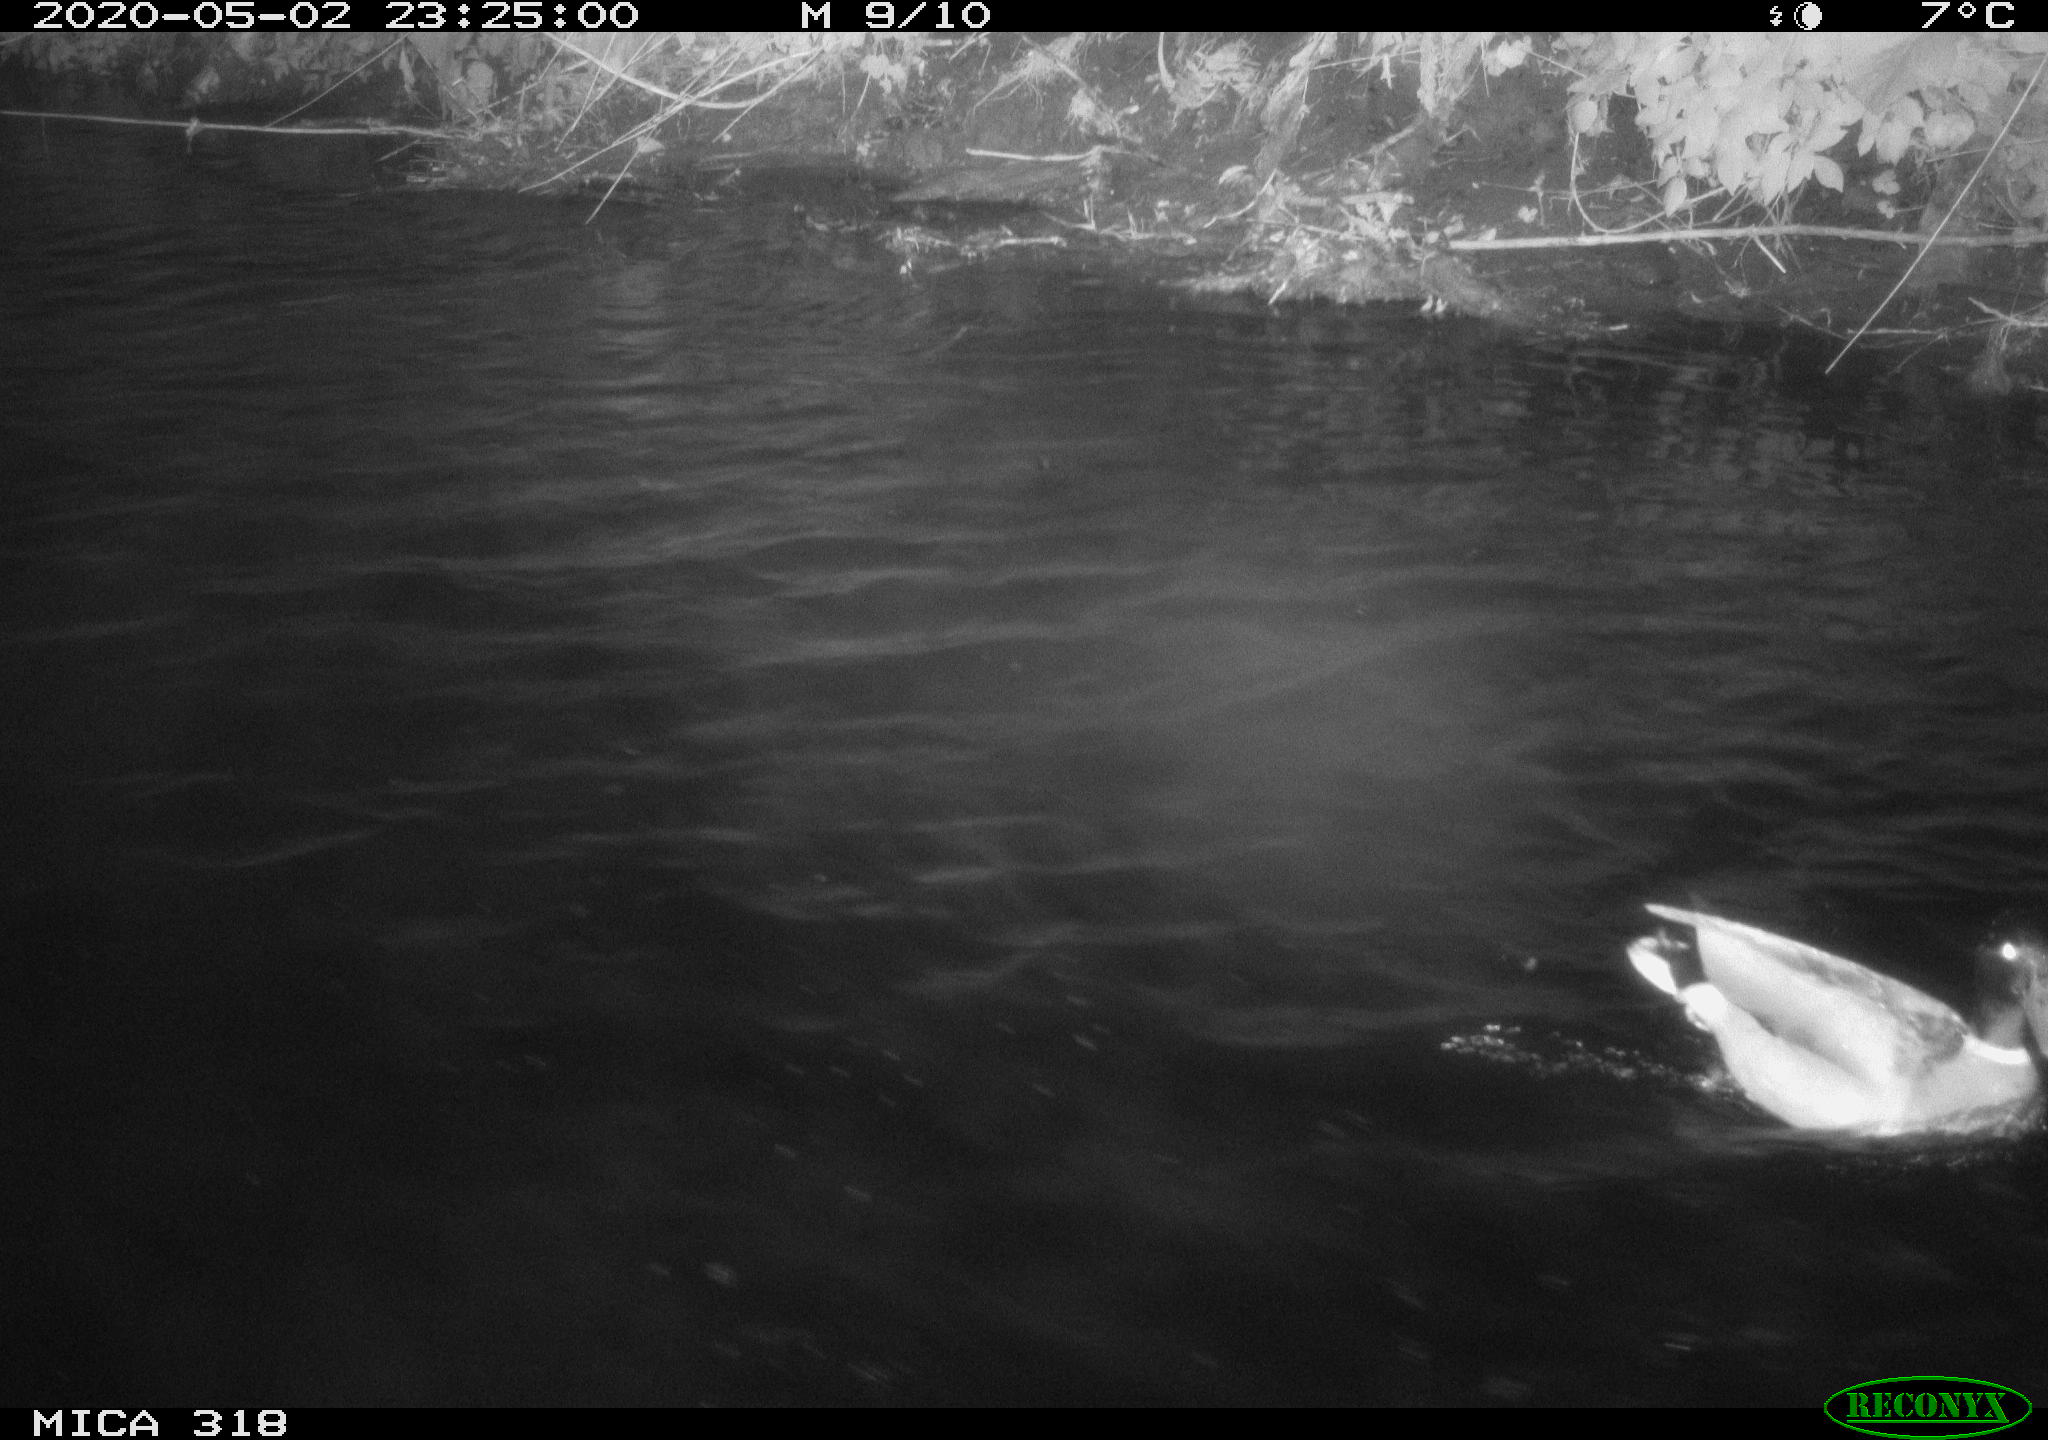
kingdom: Animalia
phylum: Chordata
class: Aves
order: Anseriformes
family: Anatidae
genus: Anas
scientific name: Anas platyrhynchos
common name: Mallard
